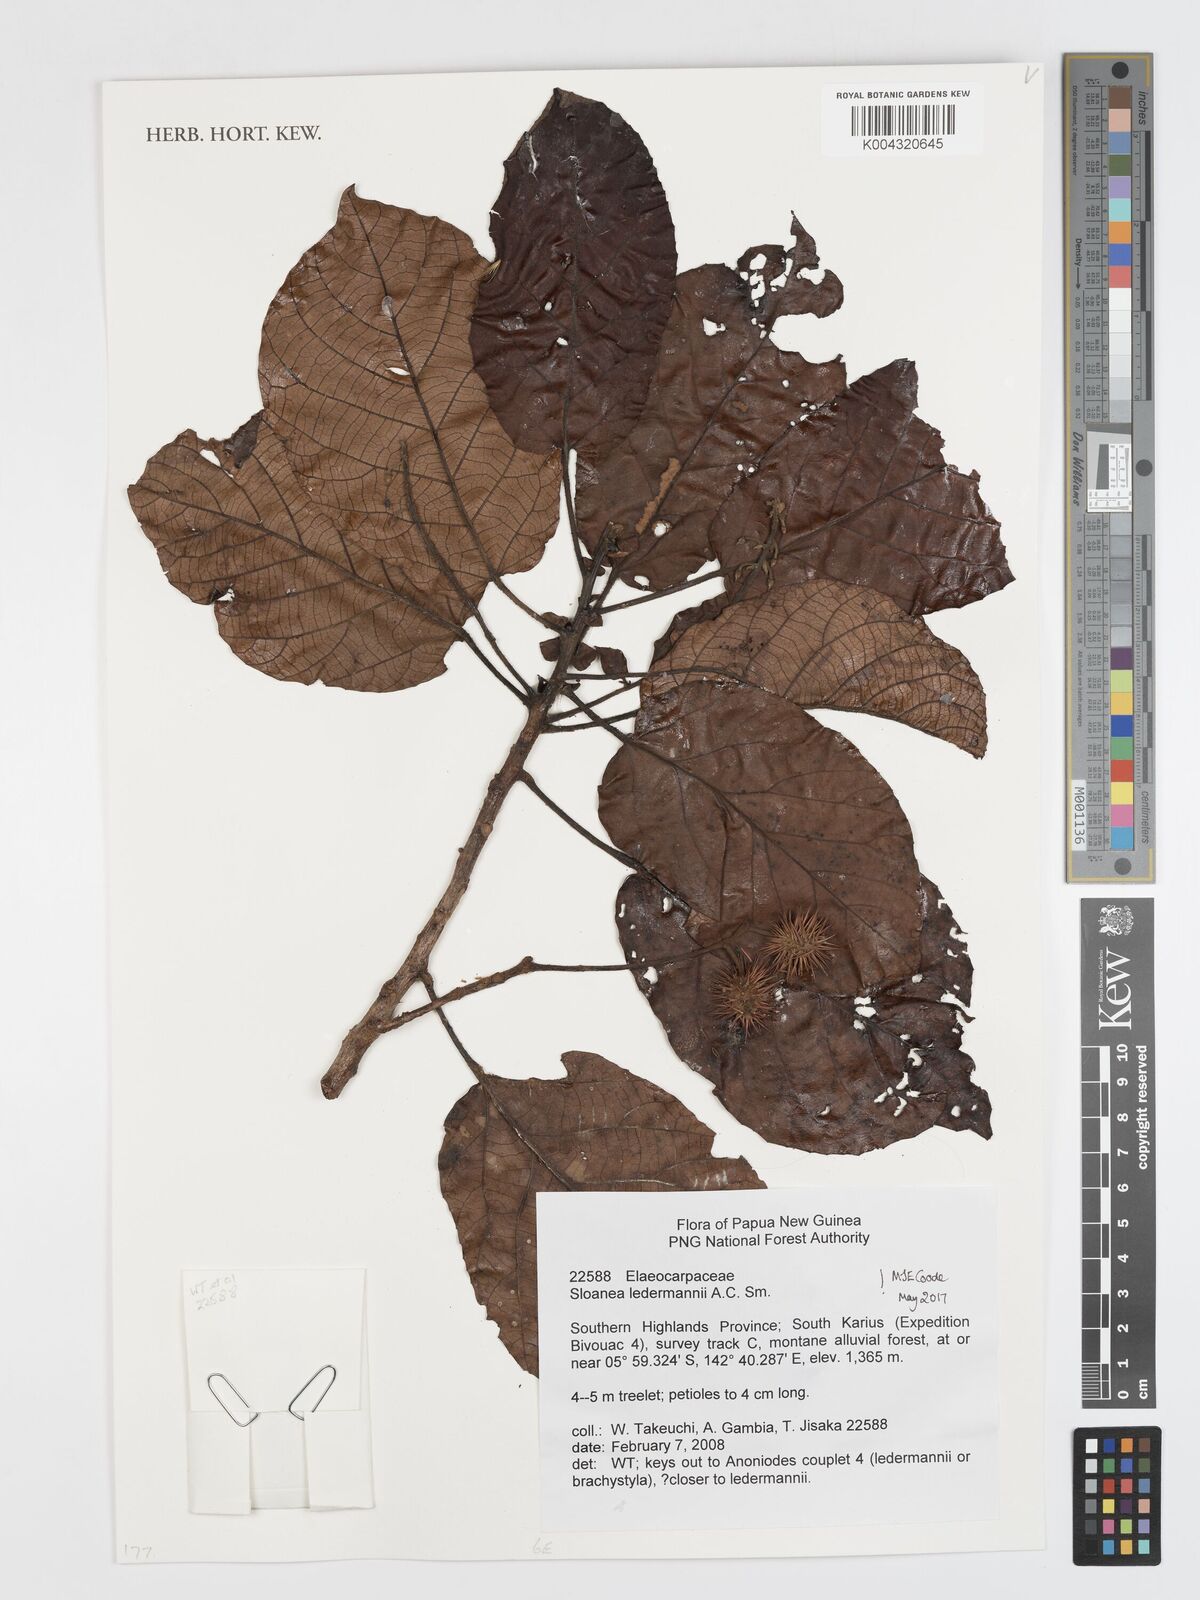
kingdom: Plantae
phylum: Tracheophyta
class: Magnoliopsida
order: Oxalidales
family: Elaeocarpaceae
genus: Sloanea
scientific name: Sloanea ledermannii
